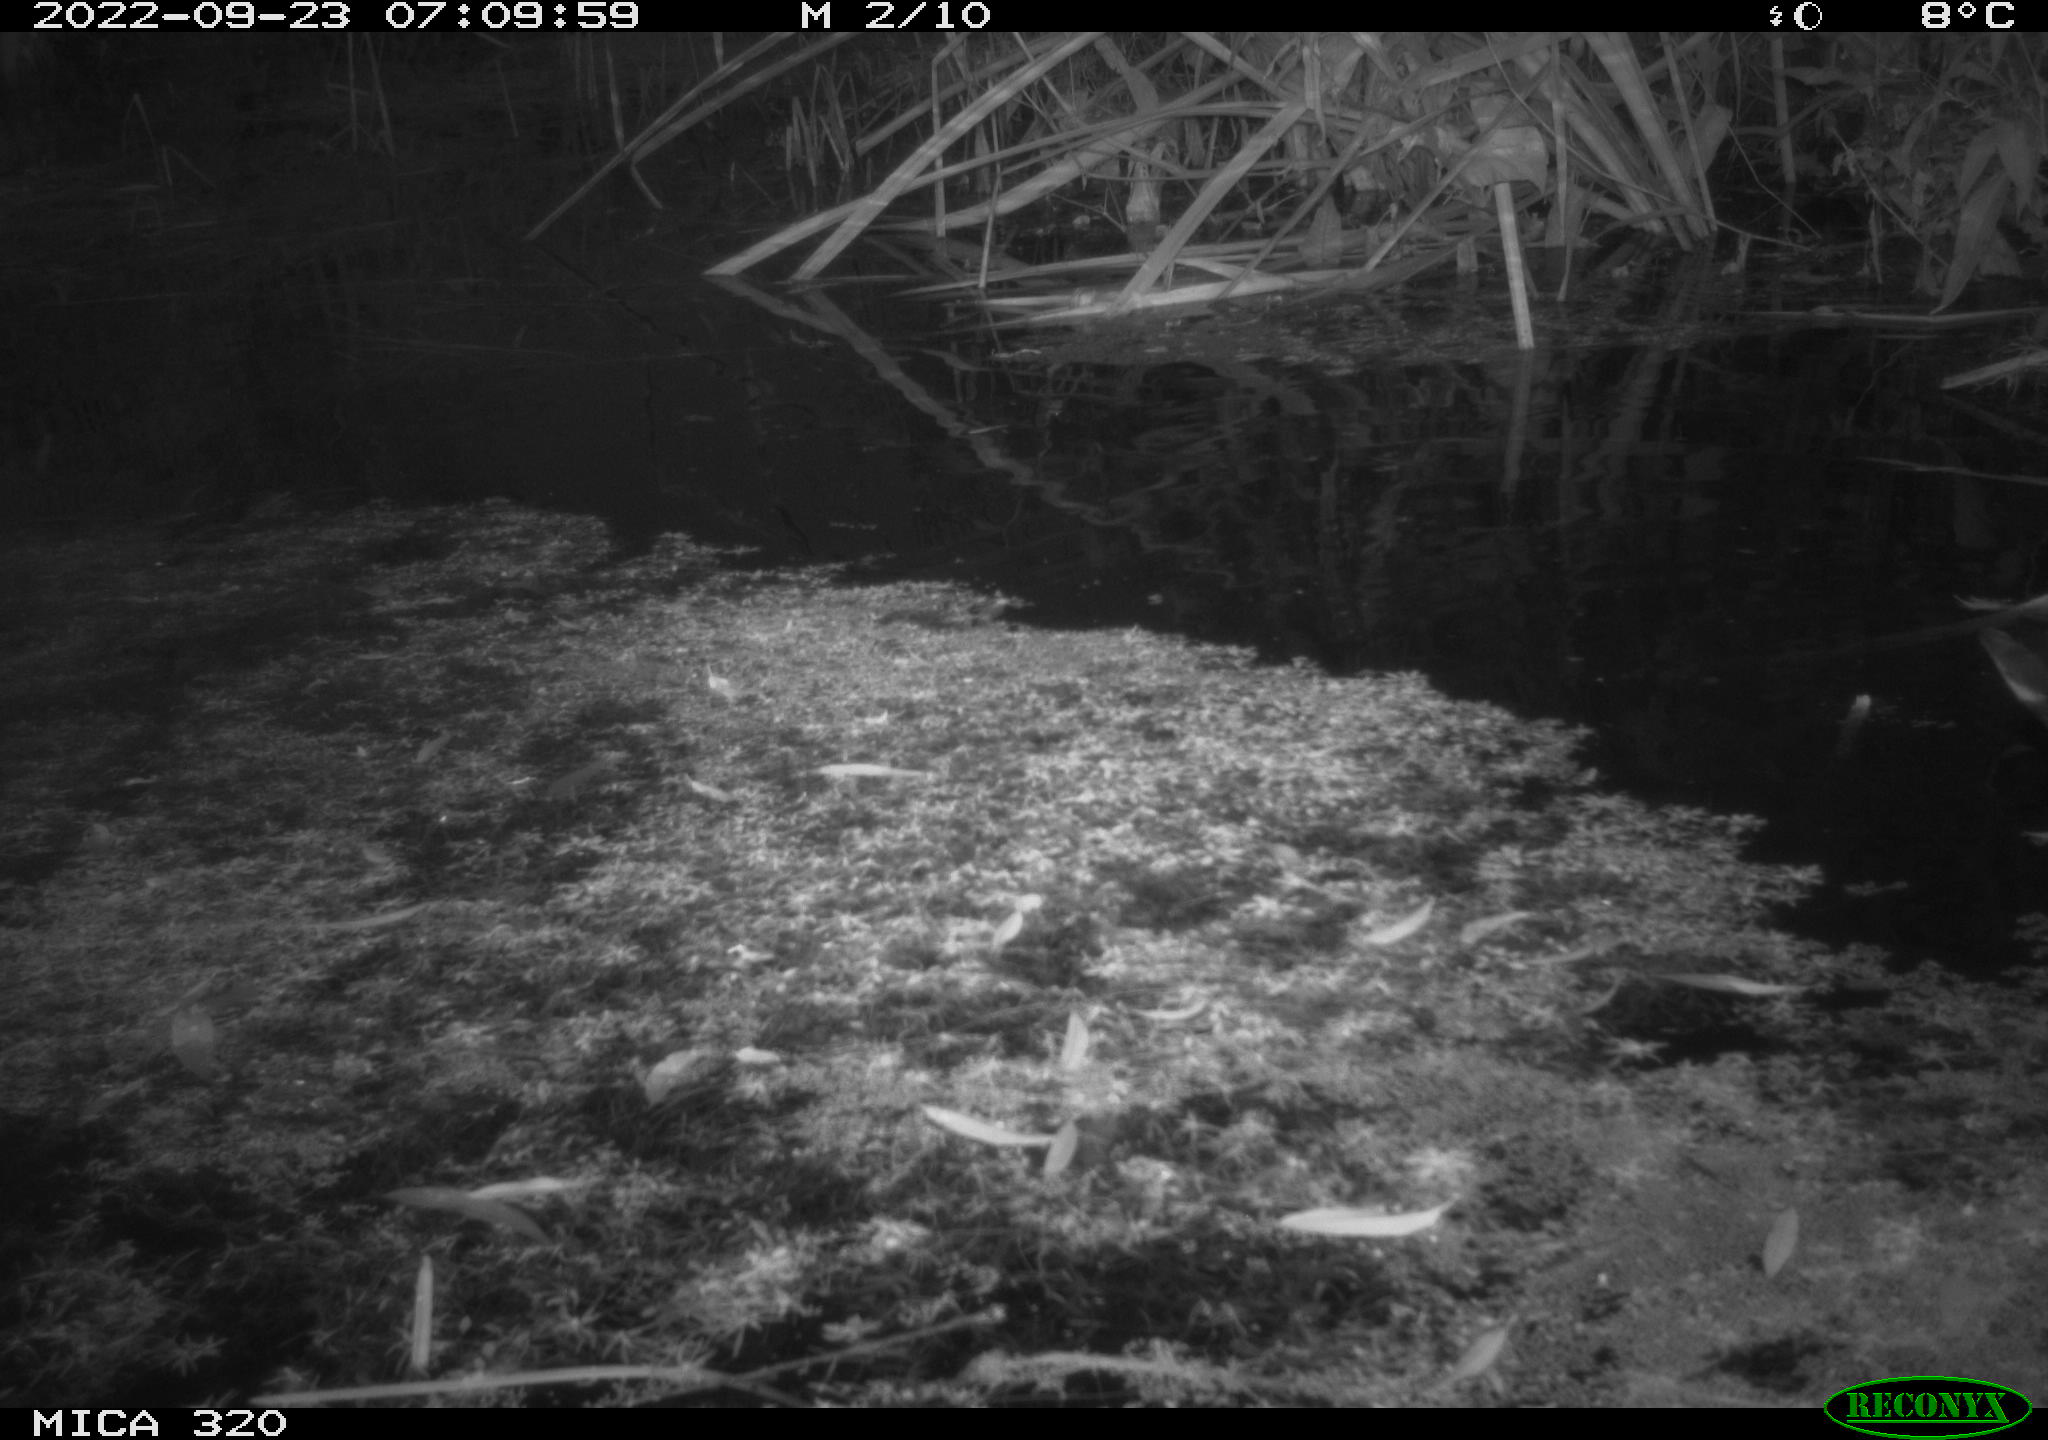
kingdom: Animalia
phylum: Chordata
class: Aves
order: Gruiformes
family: Rallidae
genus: Gallinula
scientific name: Gallinula chloropus
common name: Common moorhen
